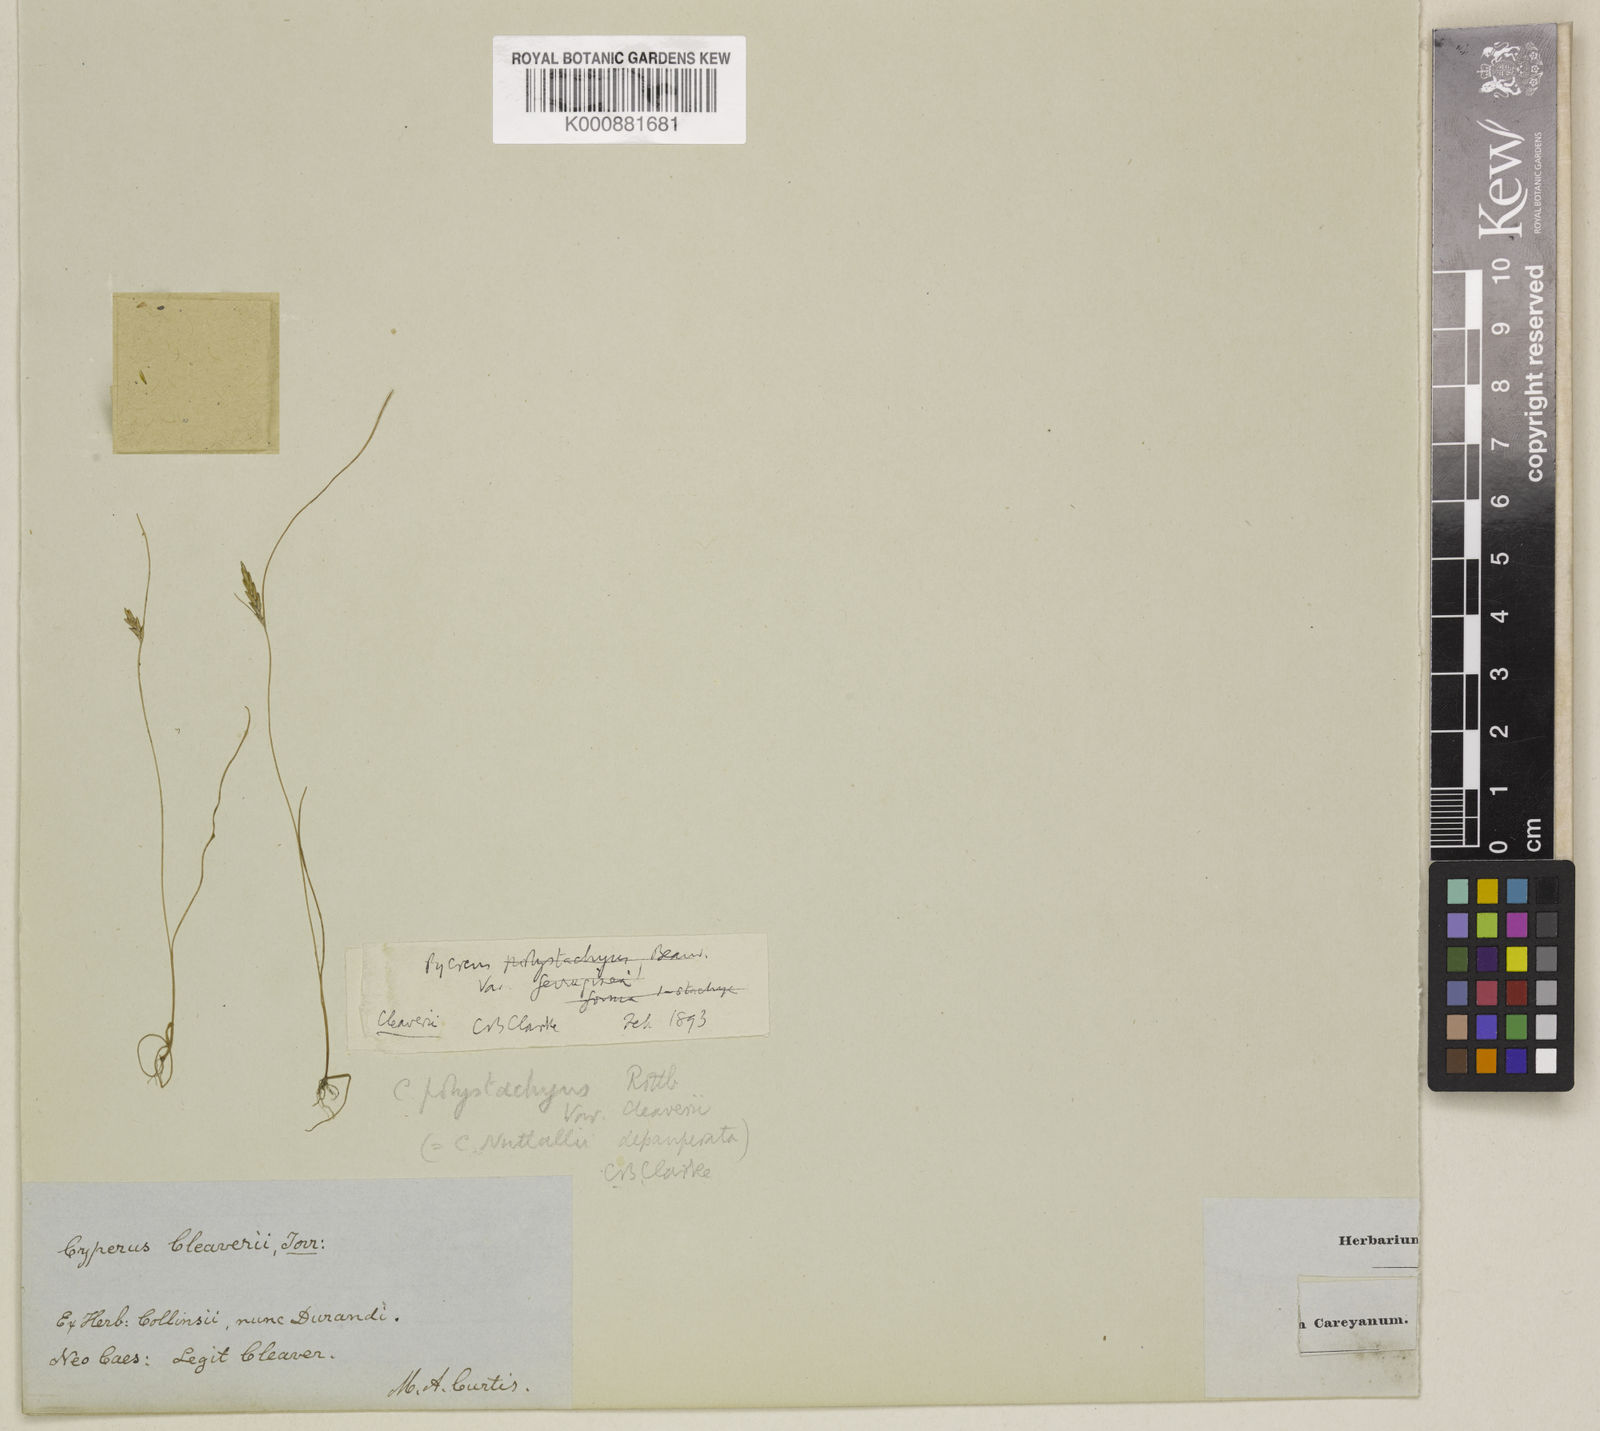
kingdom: Plantae
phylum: Tracheophyta
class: Liliopsida
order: Poales
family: Cyperaceae
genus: Cyperus
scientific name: Cyperus filicinus
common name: Fern flatsedge
